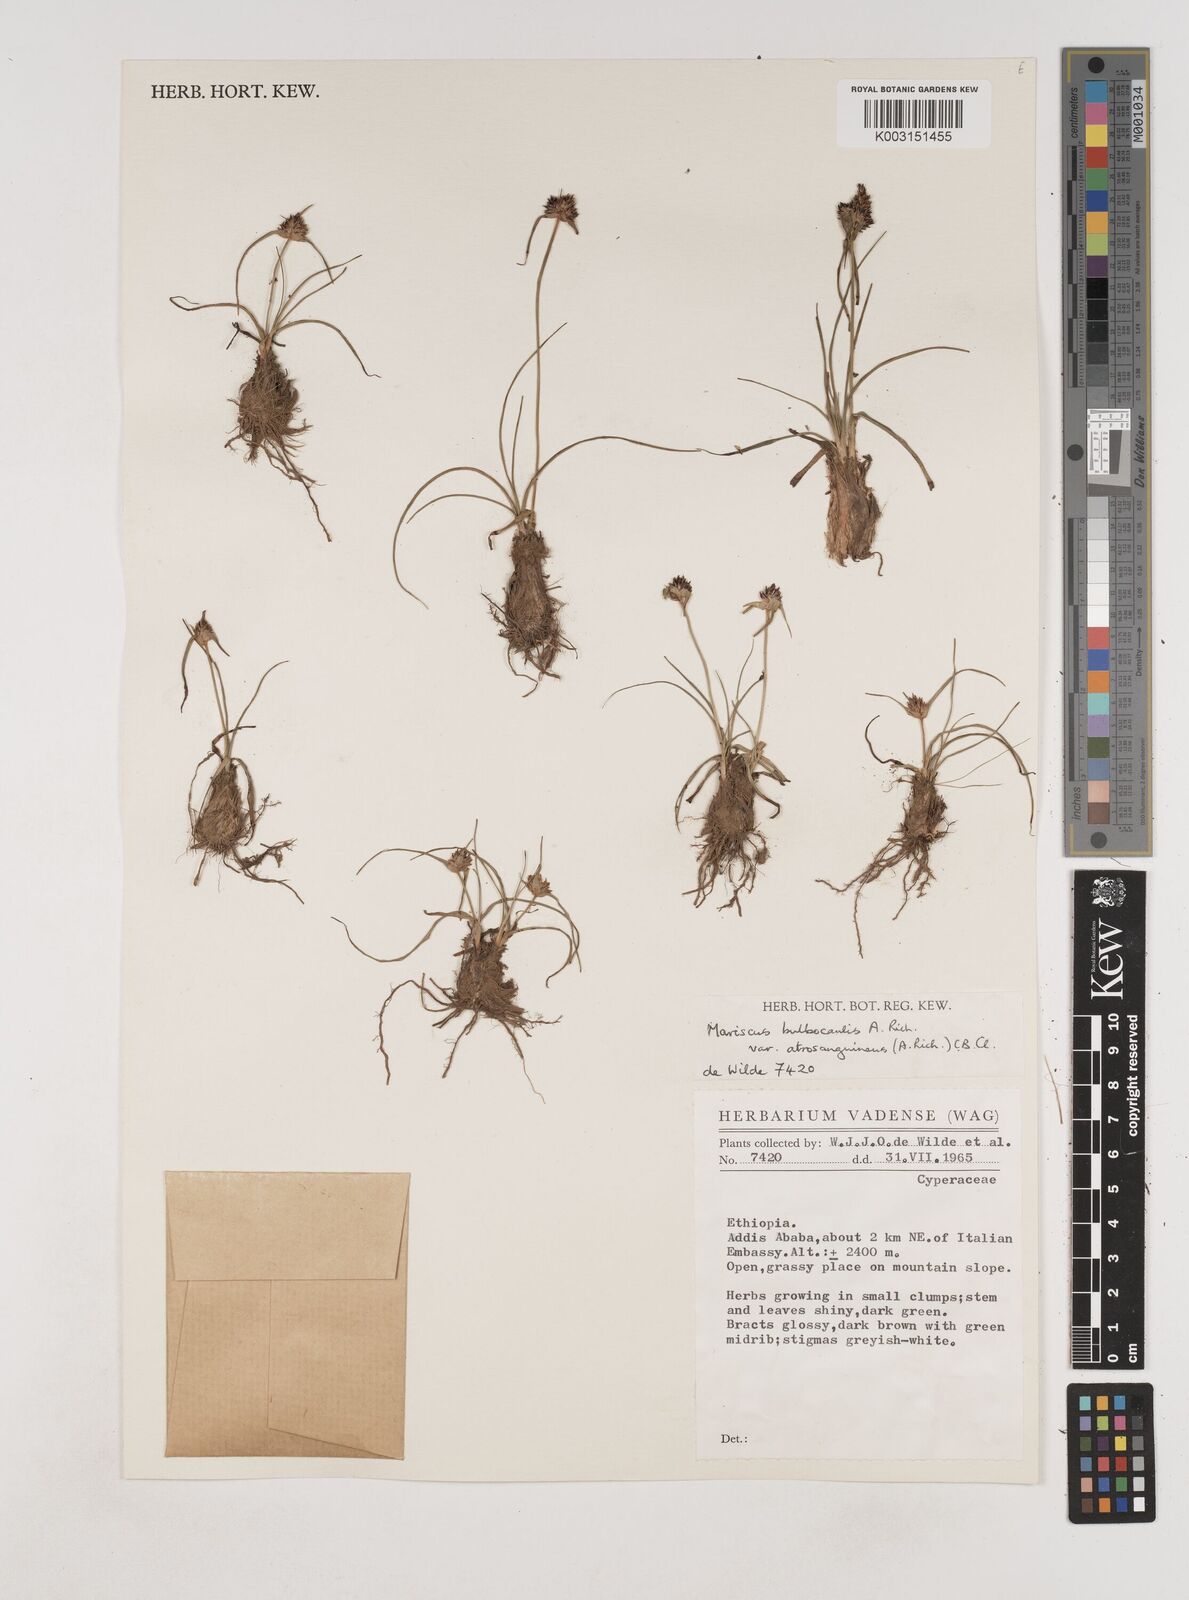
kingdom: Plantae
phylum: Tracheophyta
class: Liliopsida
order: Poales
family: Cyperaceae
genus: Cyperus
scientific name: Cyperus plateilema
